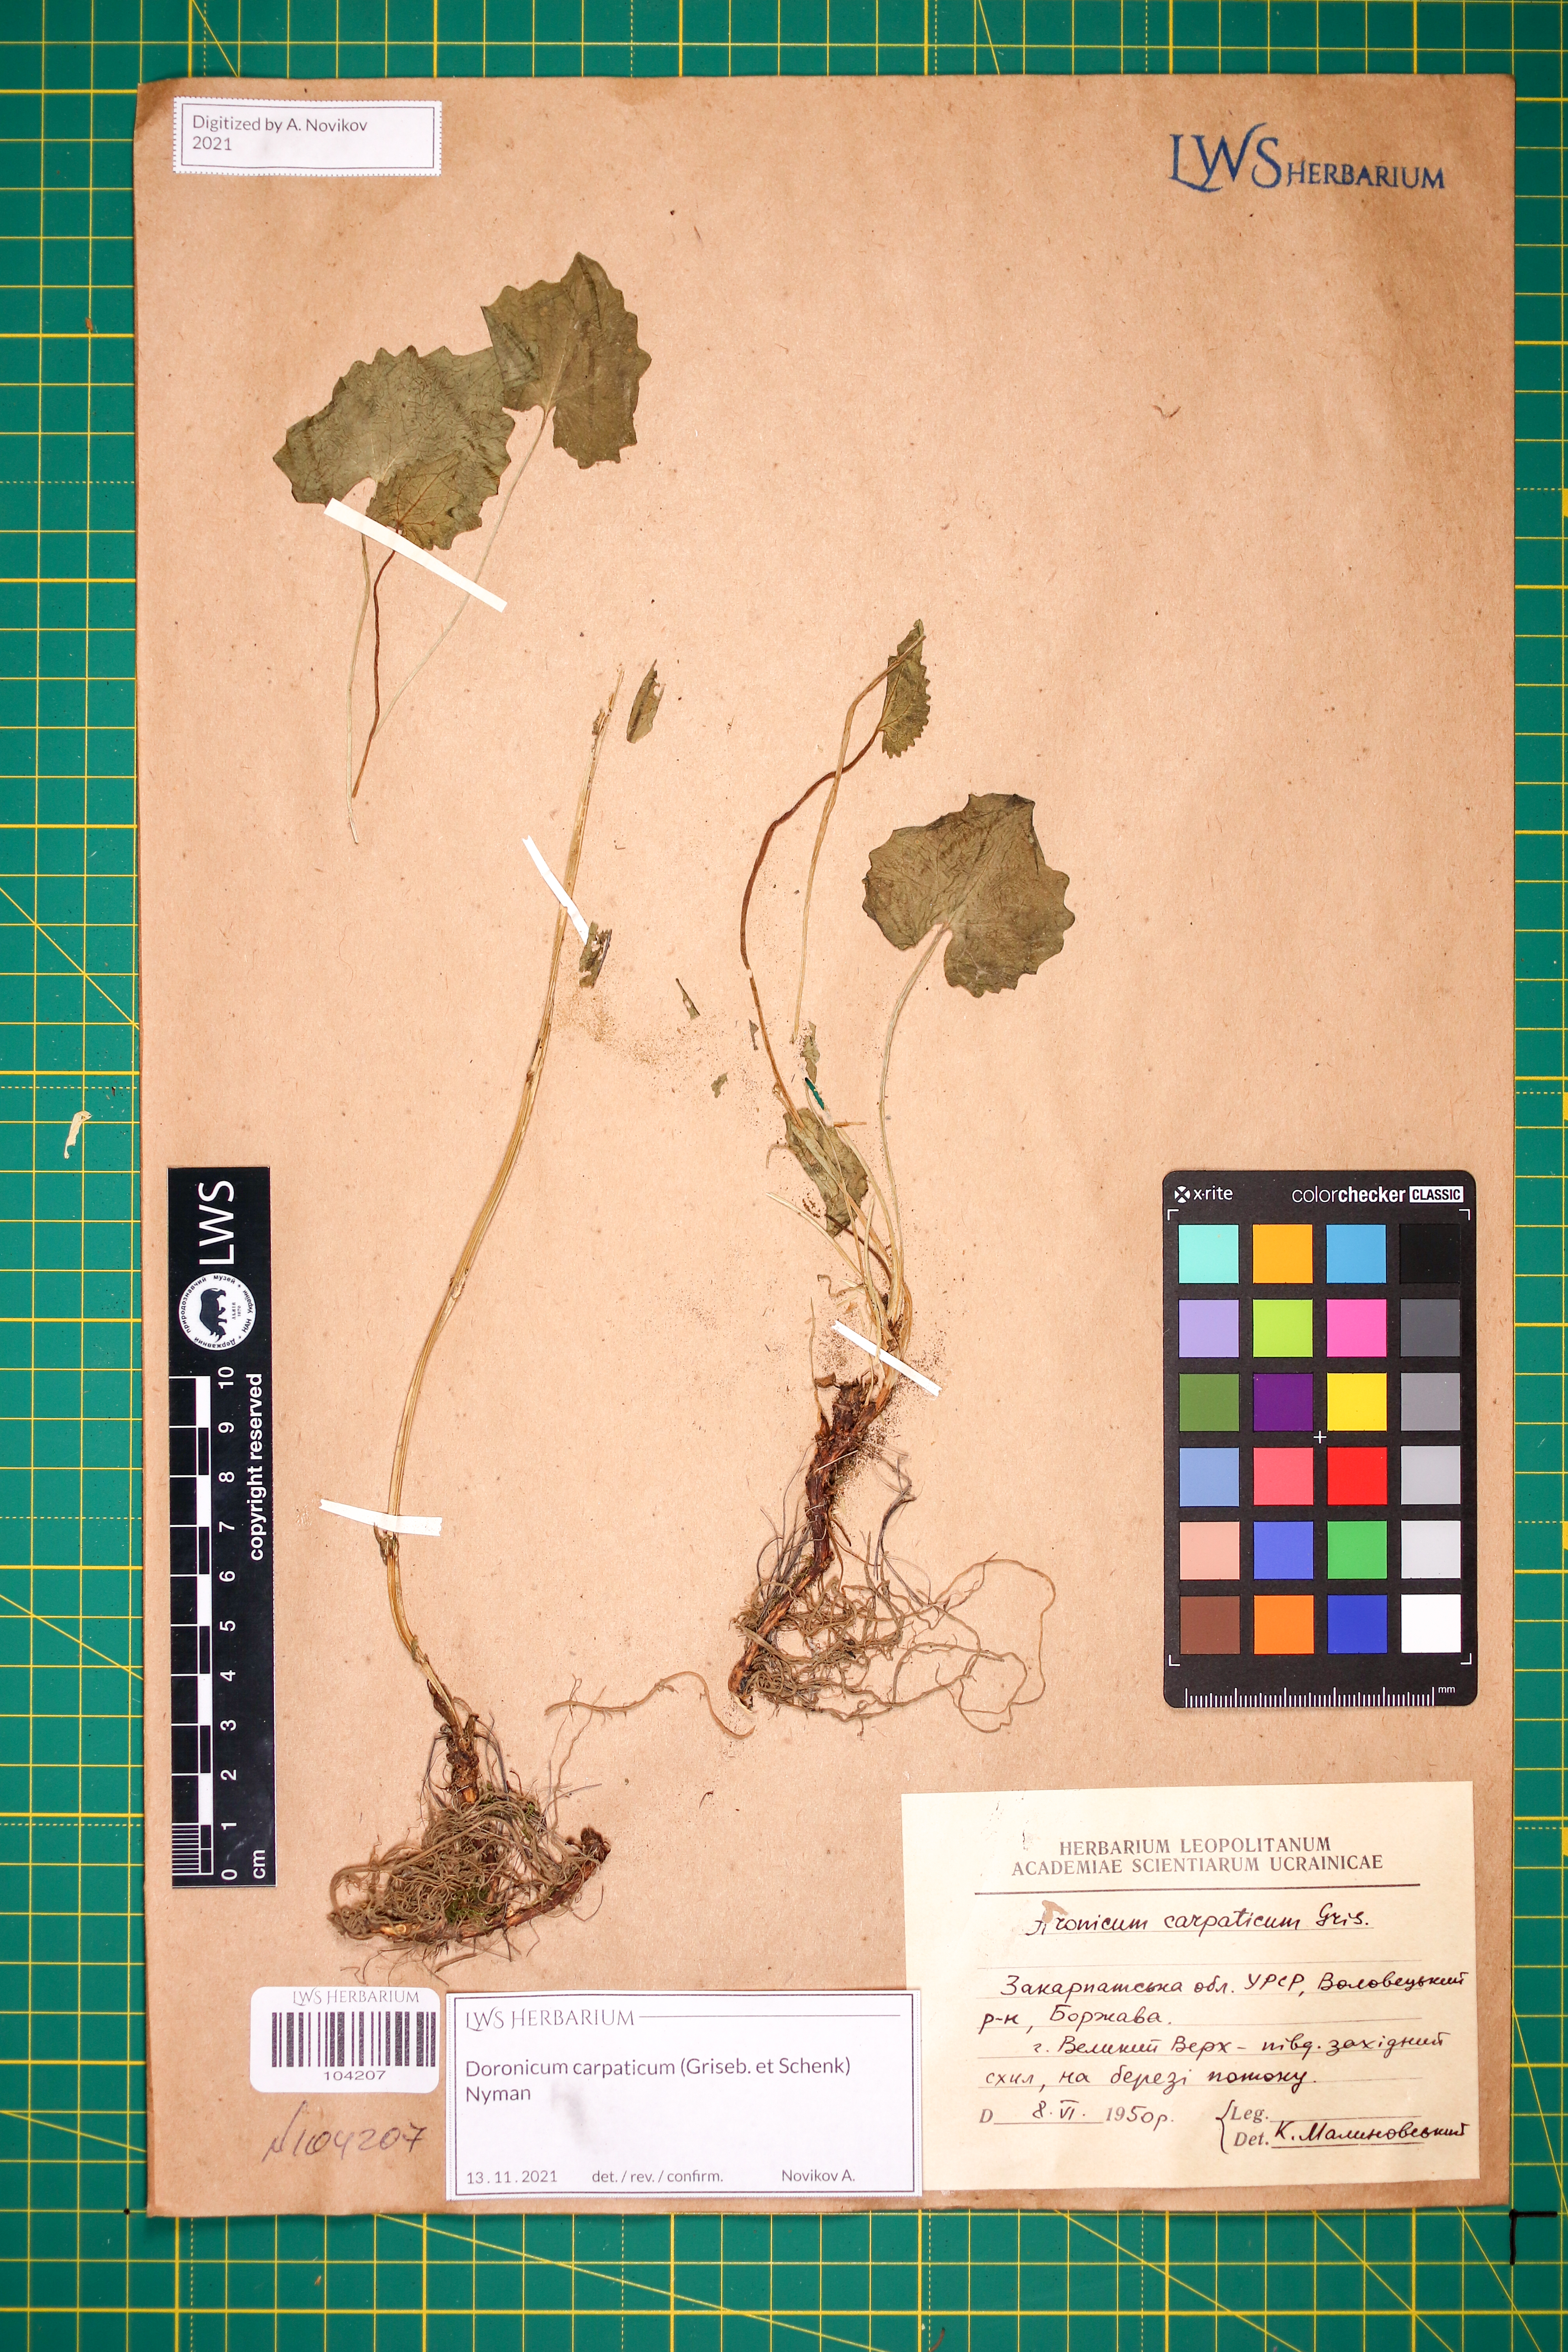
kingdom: Plantae
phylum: Tracheophyta
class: Magnoliopsida
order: Asterales
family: Asteraceae
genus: Doronicum
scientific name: Doronicum carpaticum
